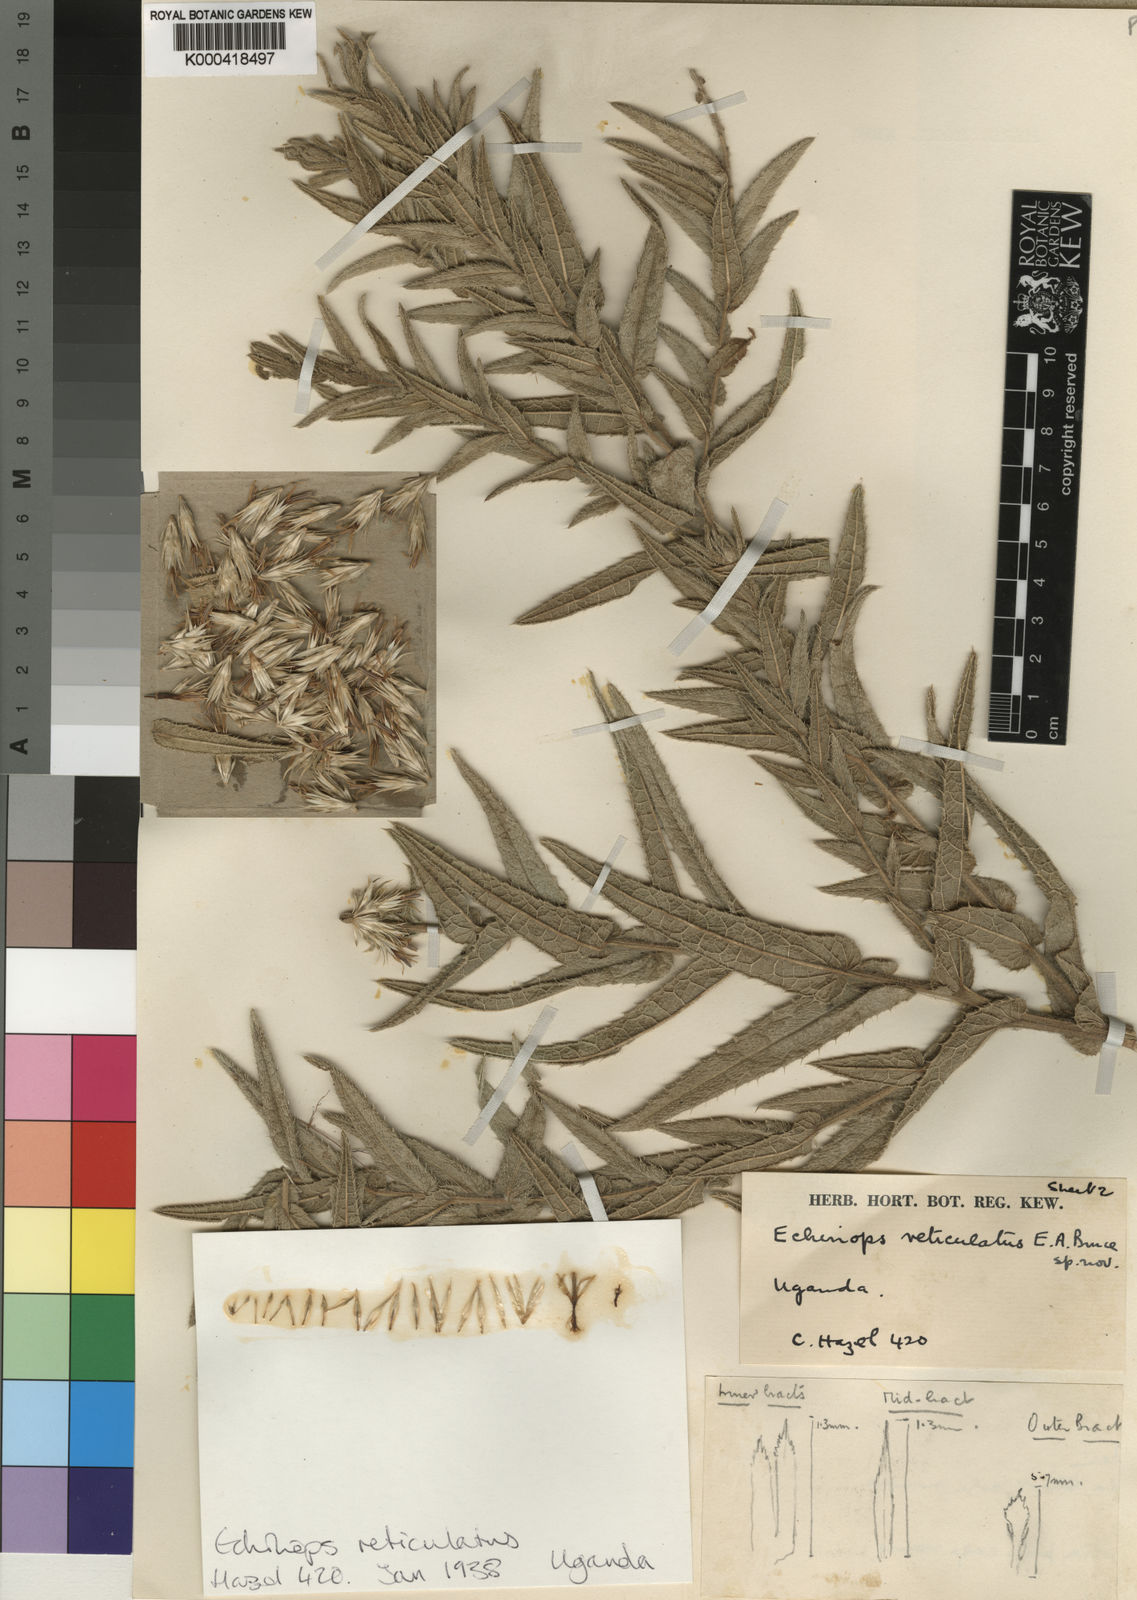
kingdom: Plantae
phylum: Tracheophyta
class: Magnoliopsida
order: Asterales
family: Asteraceae
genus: Echinops
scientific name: Echinops reticulatus
